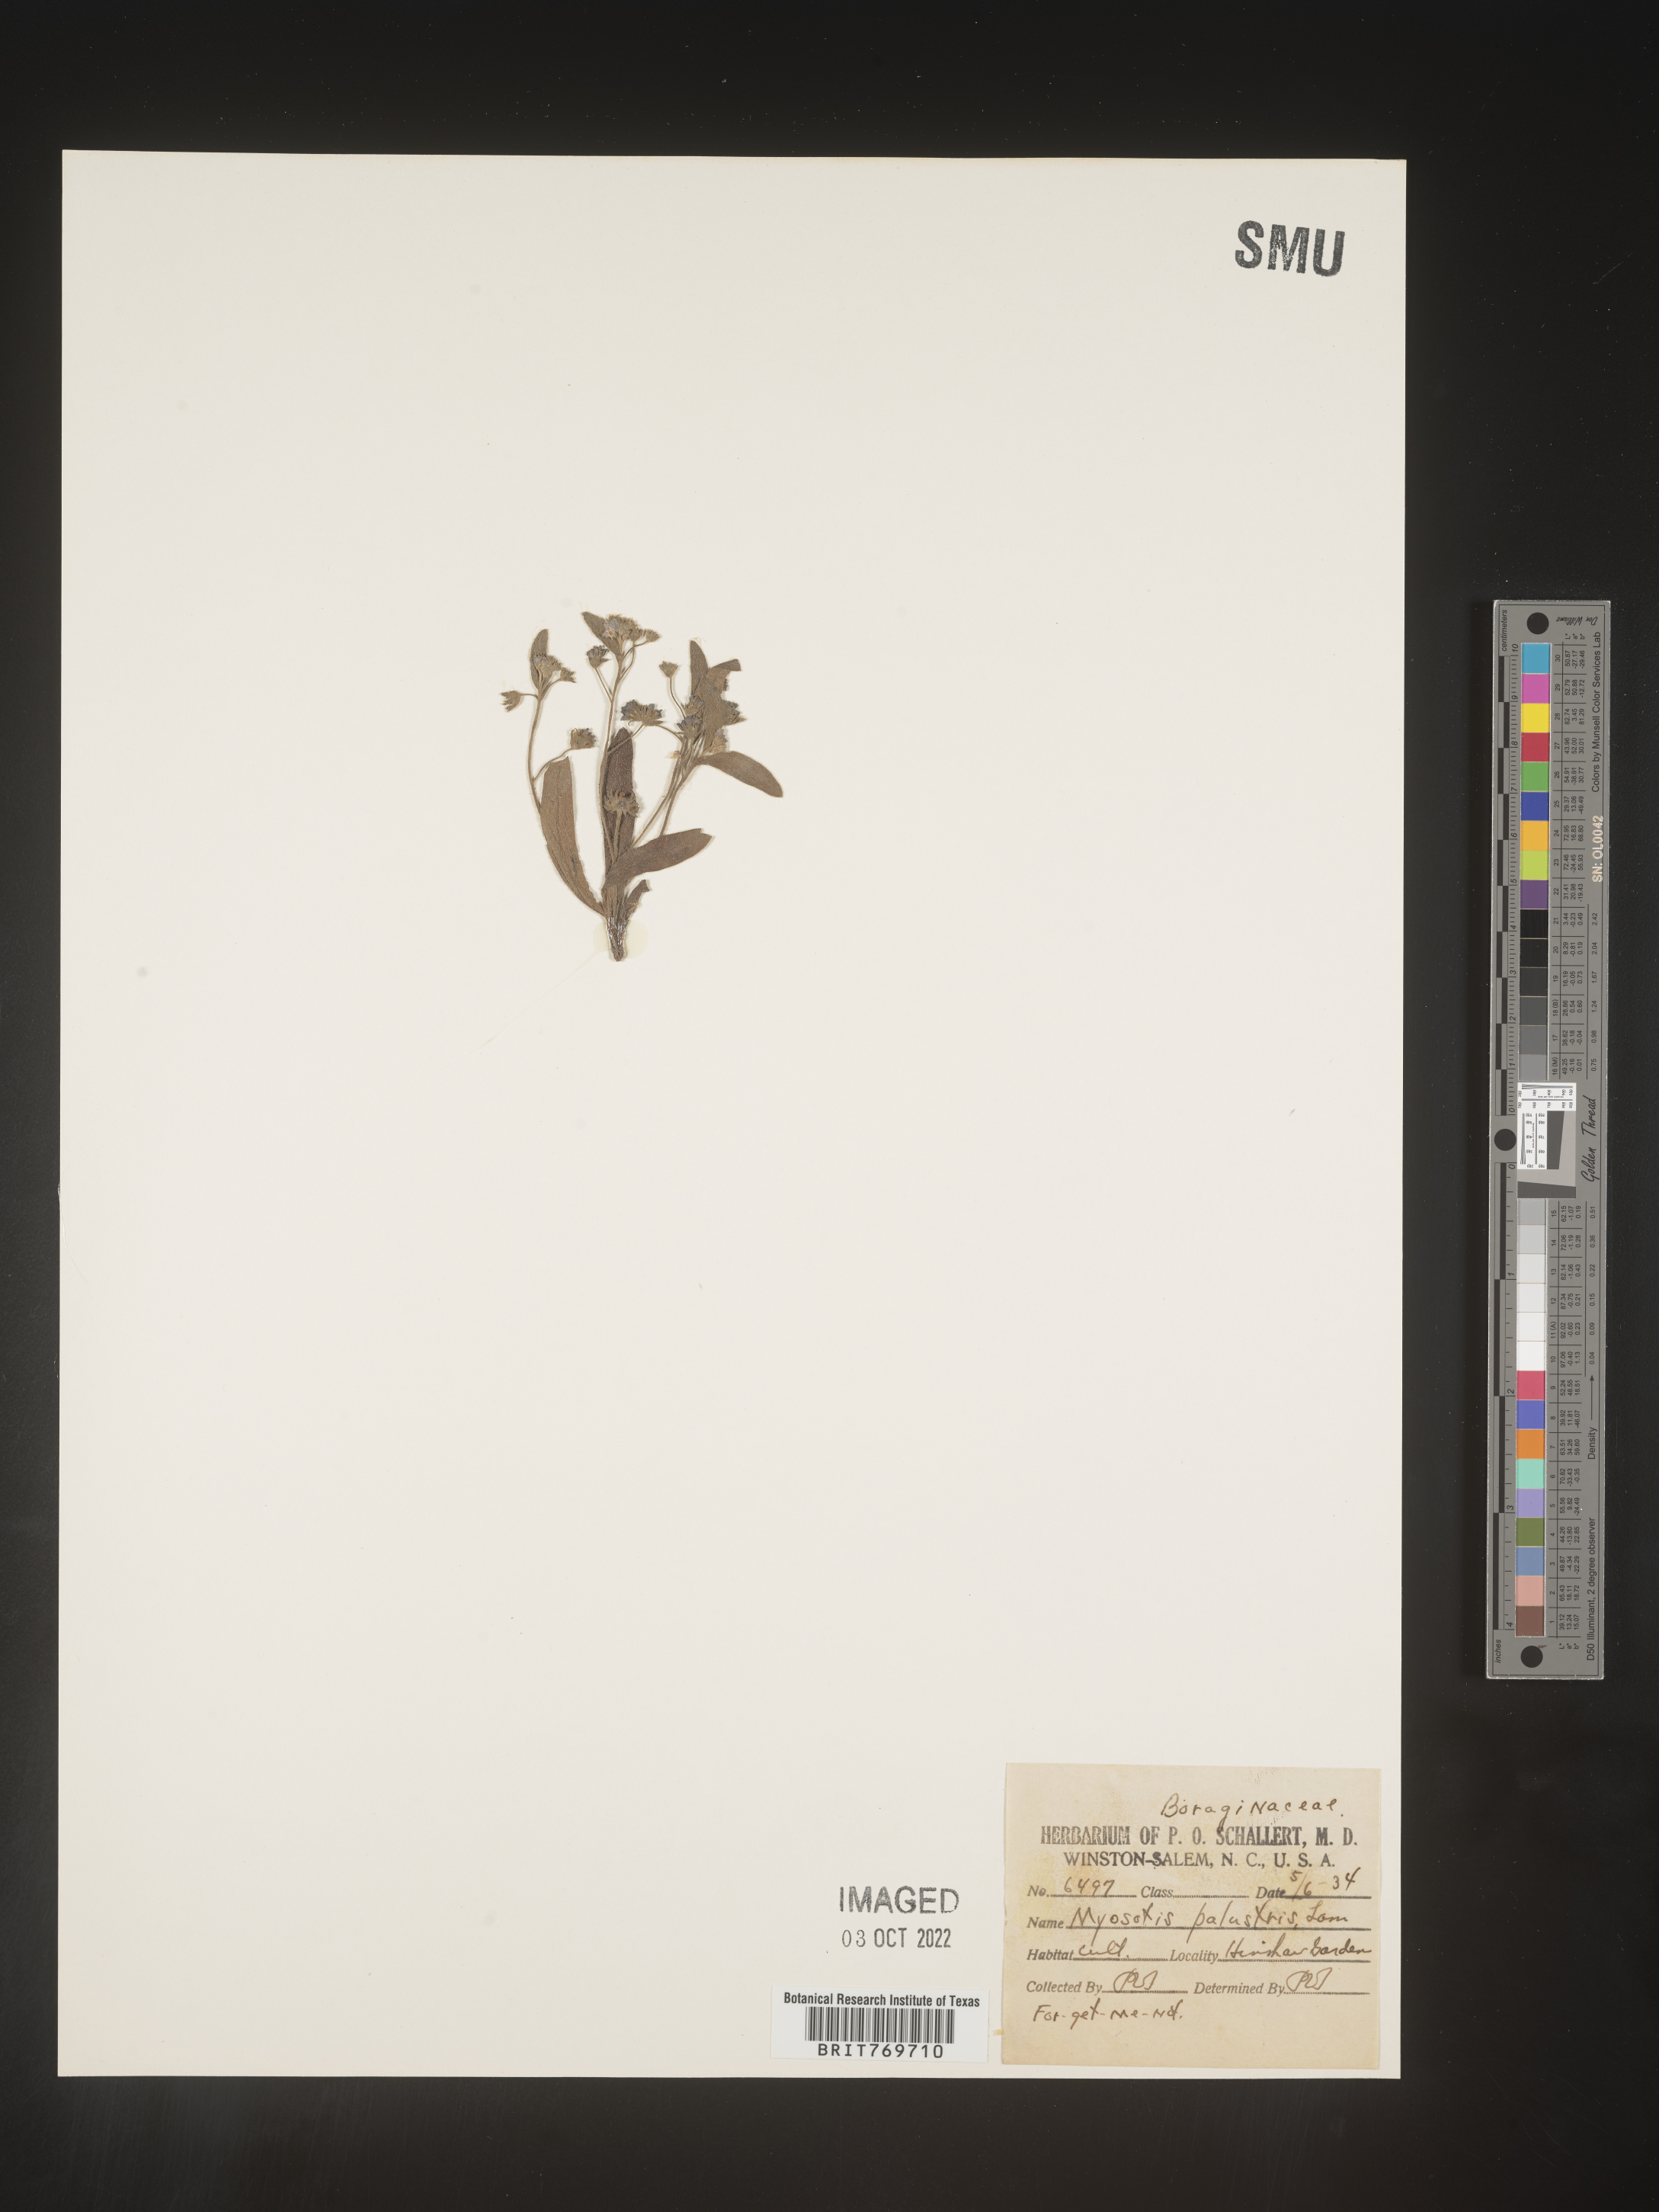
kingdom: Plantae
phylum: Tracheophyta
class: Magnoliopsida
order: Boraginales
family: Boraginaceae
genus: Myosotis
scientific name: Myosotis
